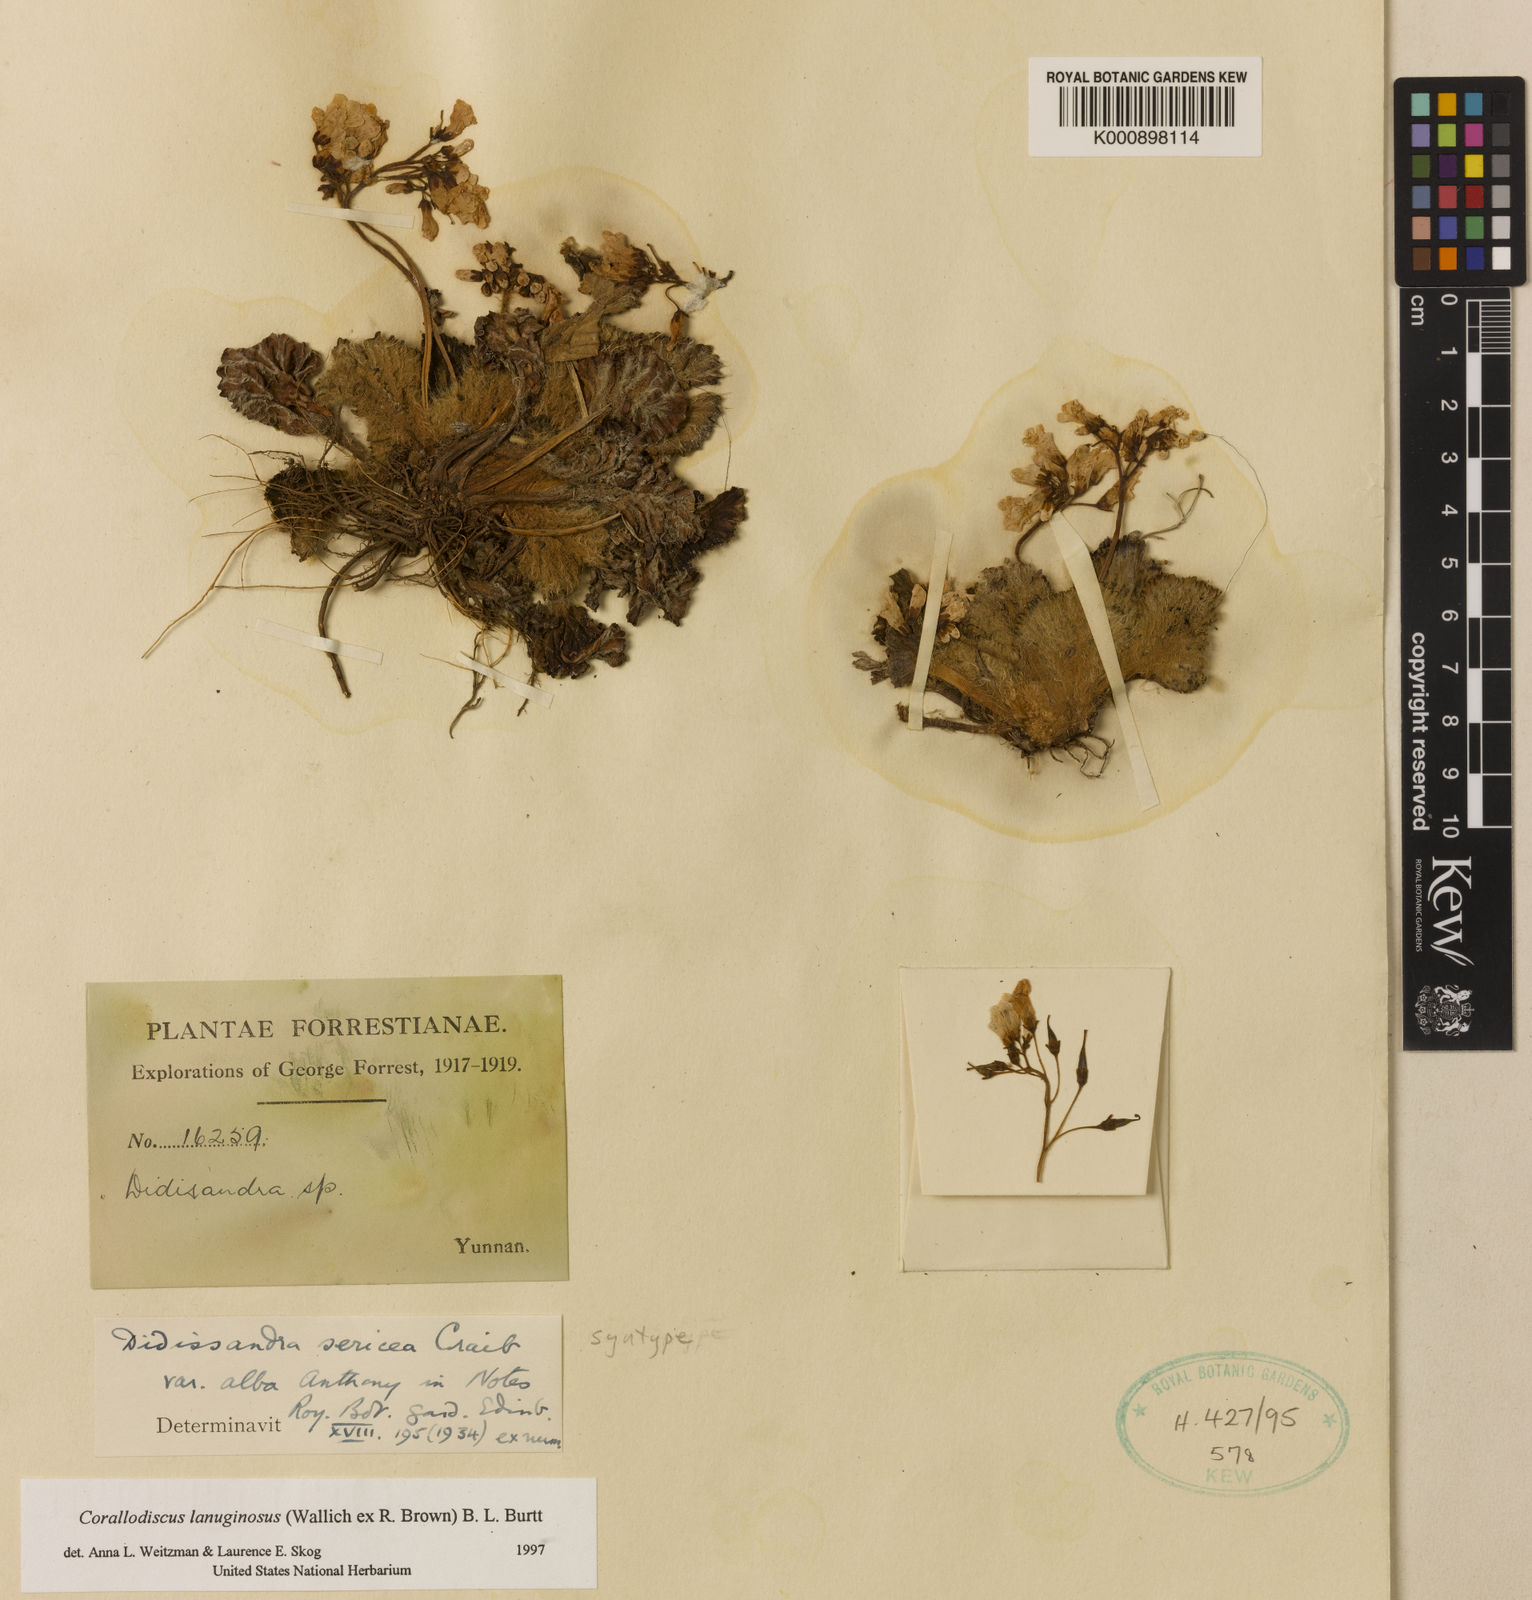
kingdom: Plantae
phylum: Tracheophyta
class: Magnoliopsida
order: Lamiales
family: Gesneriaceae
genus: Corallodiscus
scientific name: Corallodiscus lanuginosus
